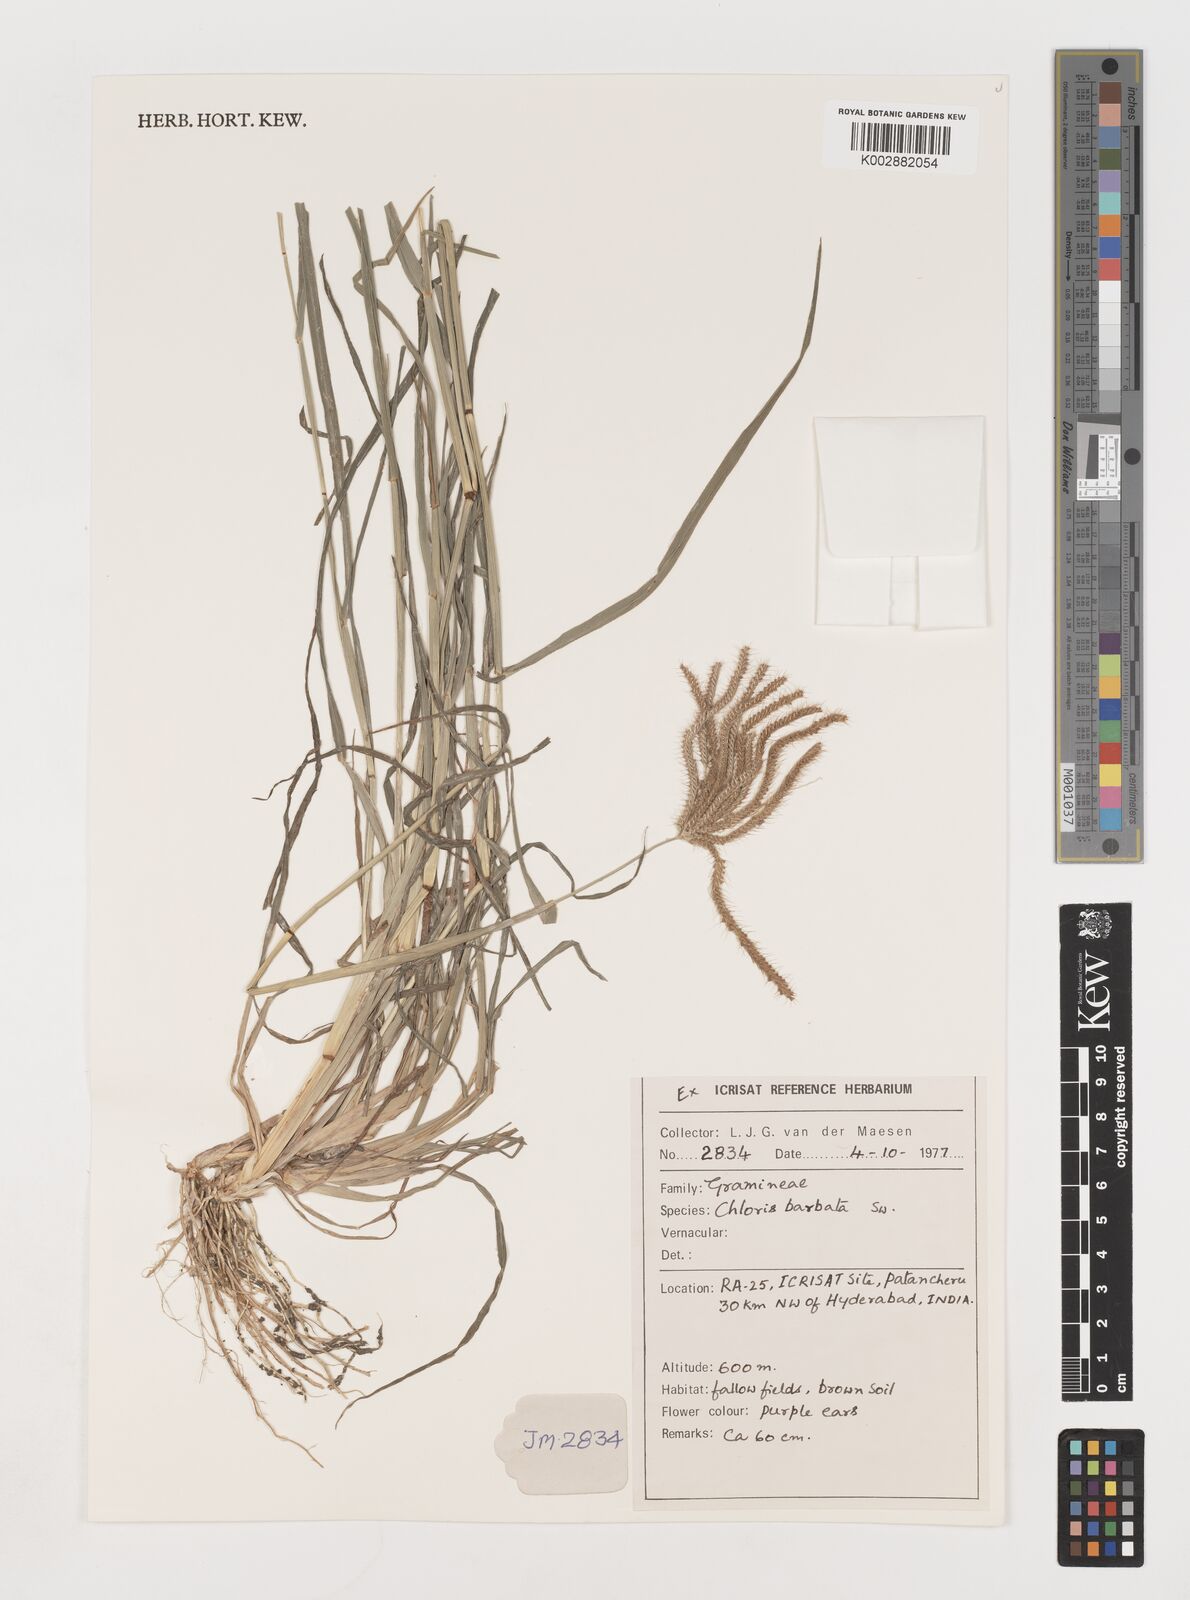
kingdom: Plantae
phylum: Tracheophyta
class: Liliopsida
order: Poales
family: Poaceae
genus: Chloris
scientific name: Chloris barbata
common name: Swollen fingergrass
